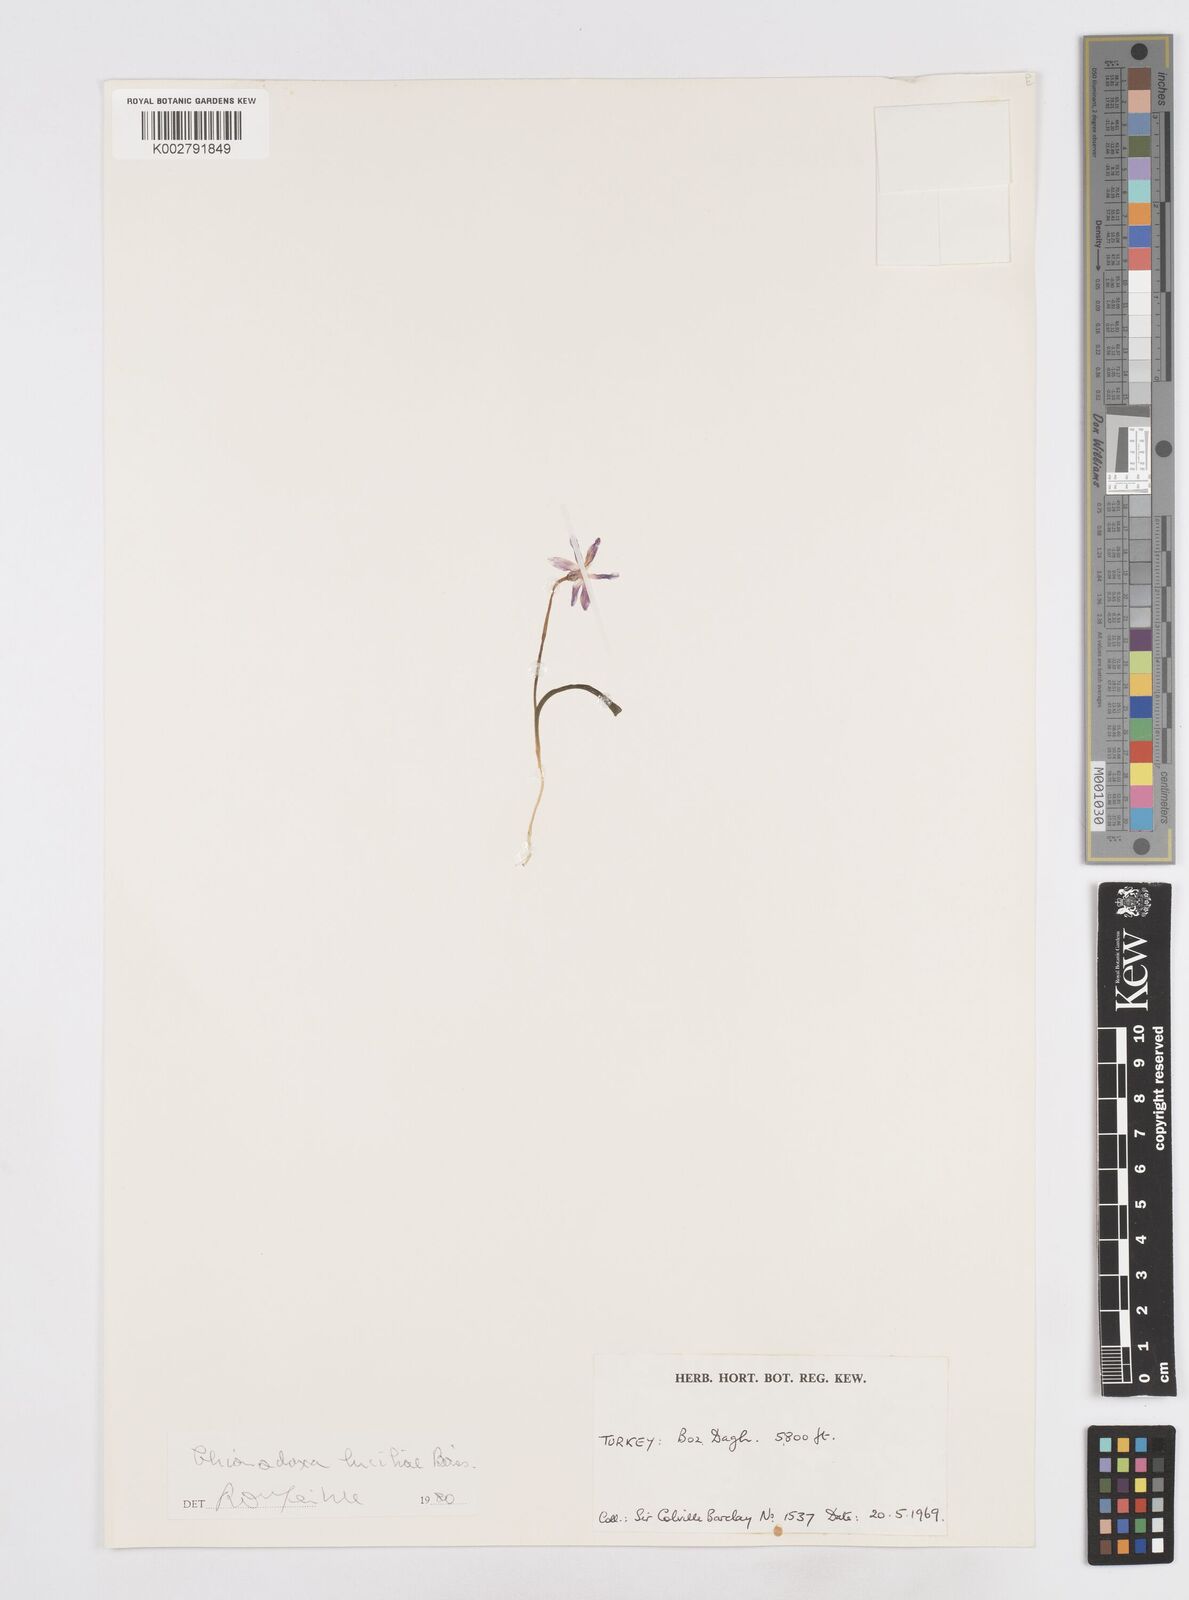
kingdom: Plantae
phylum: Tracheophyta
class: Liliopsida
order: Asparagales
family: Asparagaceae
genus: Scilla
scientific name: Scilla luciliae
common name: Boissier's glory-of-the-snow
